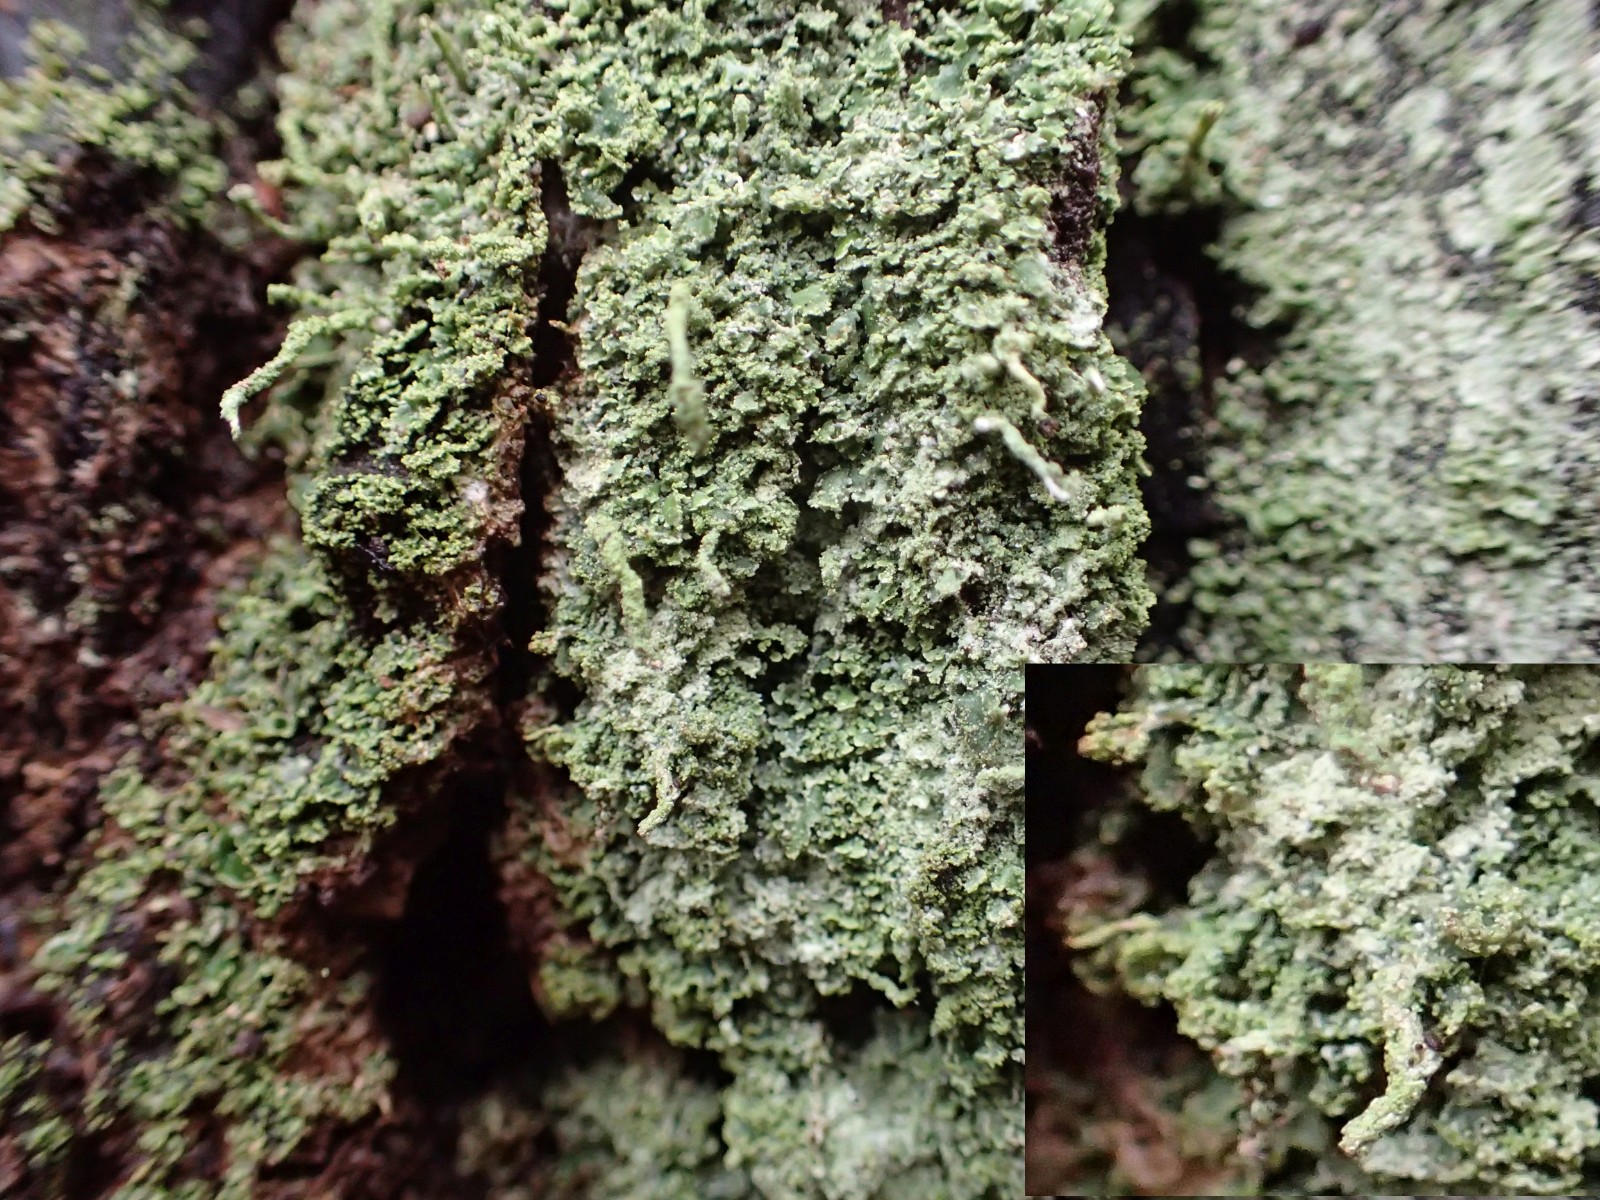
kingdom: Fungi
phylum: Ascomycota
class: Lecanoromycetes
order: Lecanorales
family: Cladoniaceae
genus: Cladonia
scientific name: Cladonia coniocraea
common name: træfods-bægerlav
